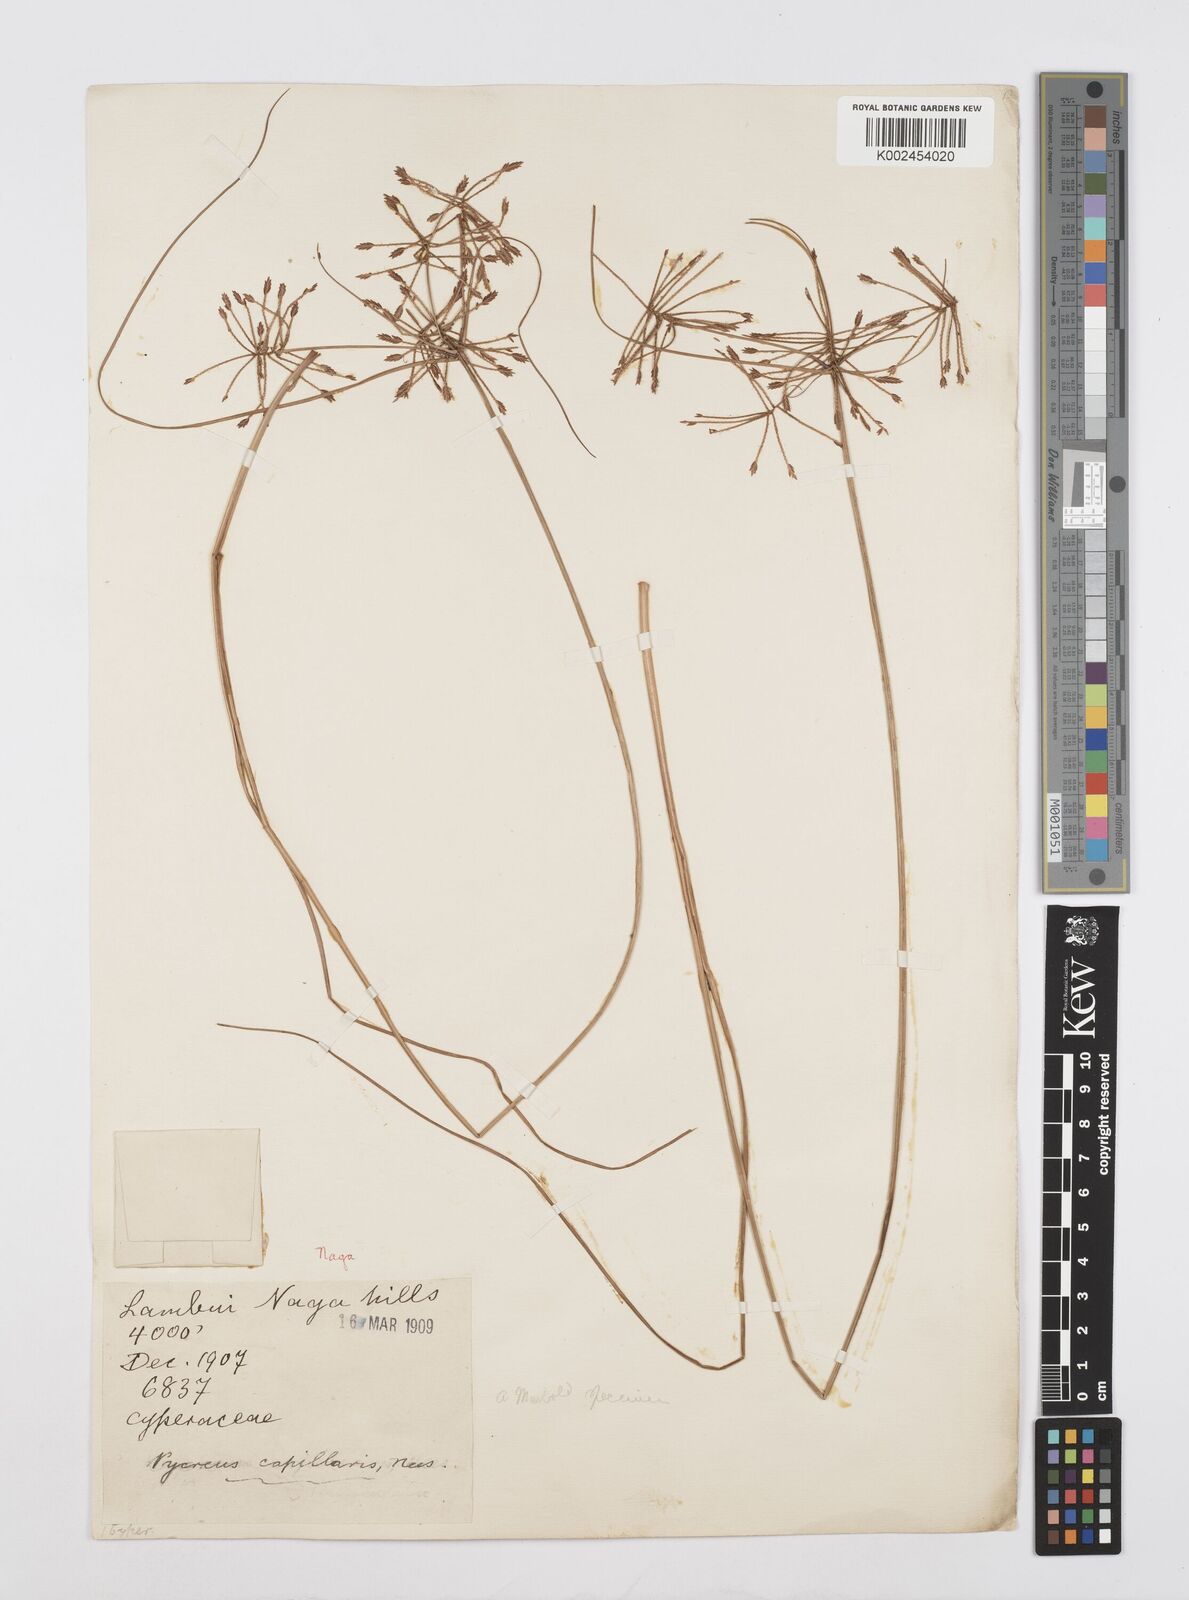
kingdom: Plantae
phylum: Tracheophyta
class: Liliopsida
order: Poales
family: Cyperaceae
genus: Cyperus
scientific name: Cyperus flavidus
